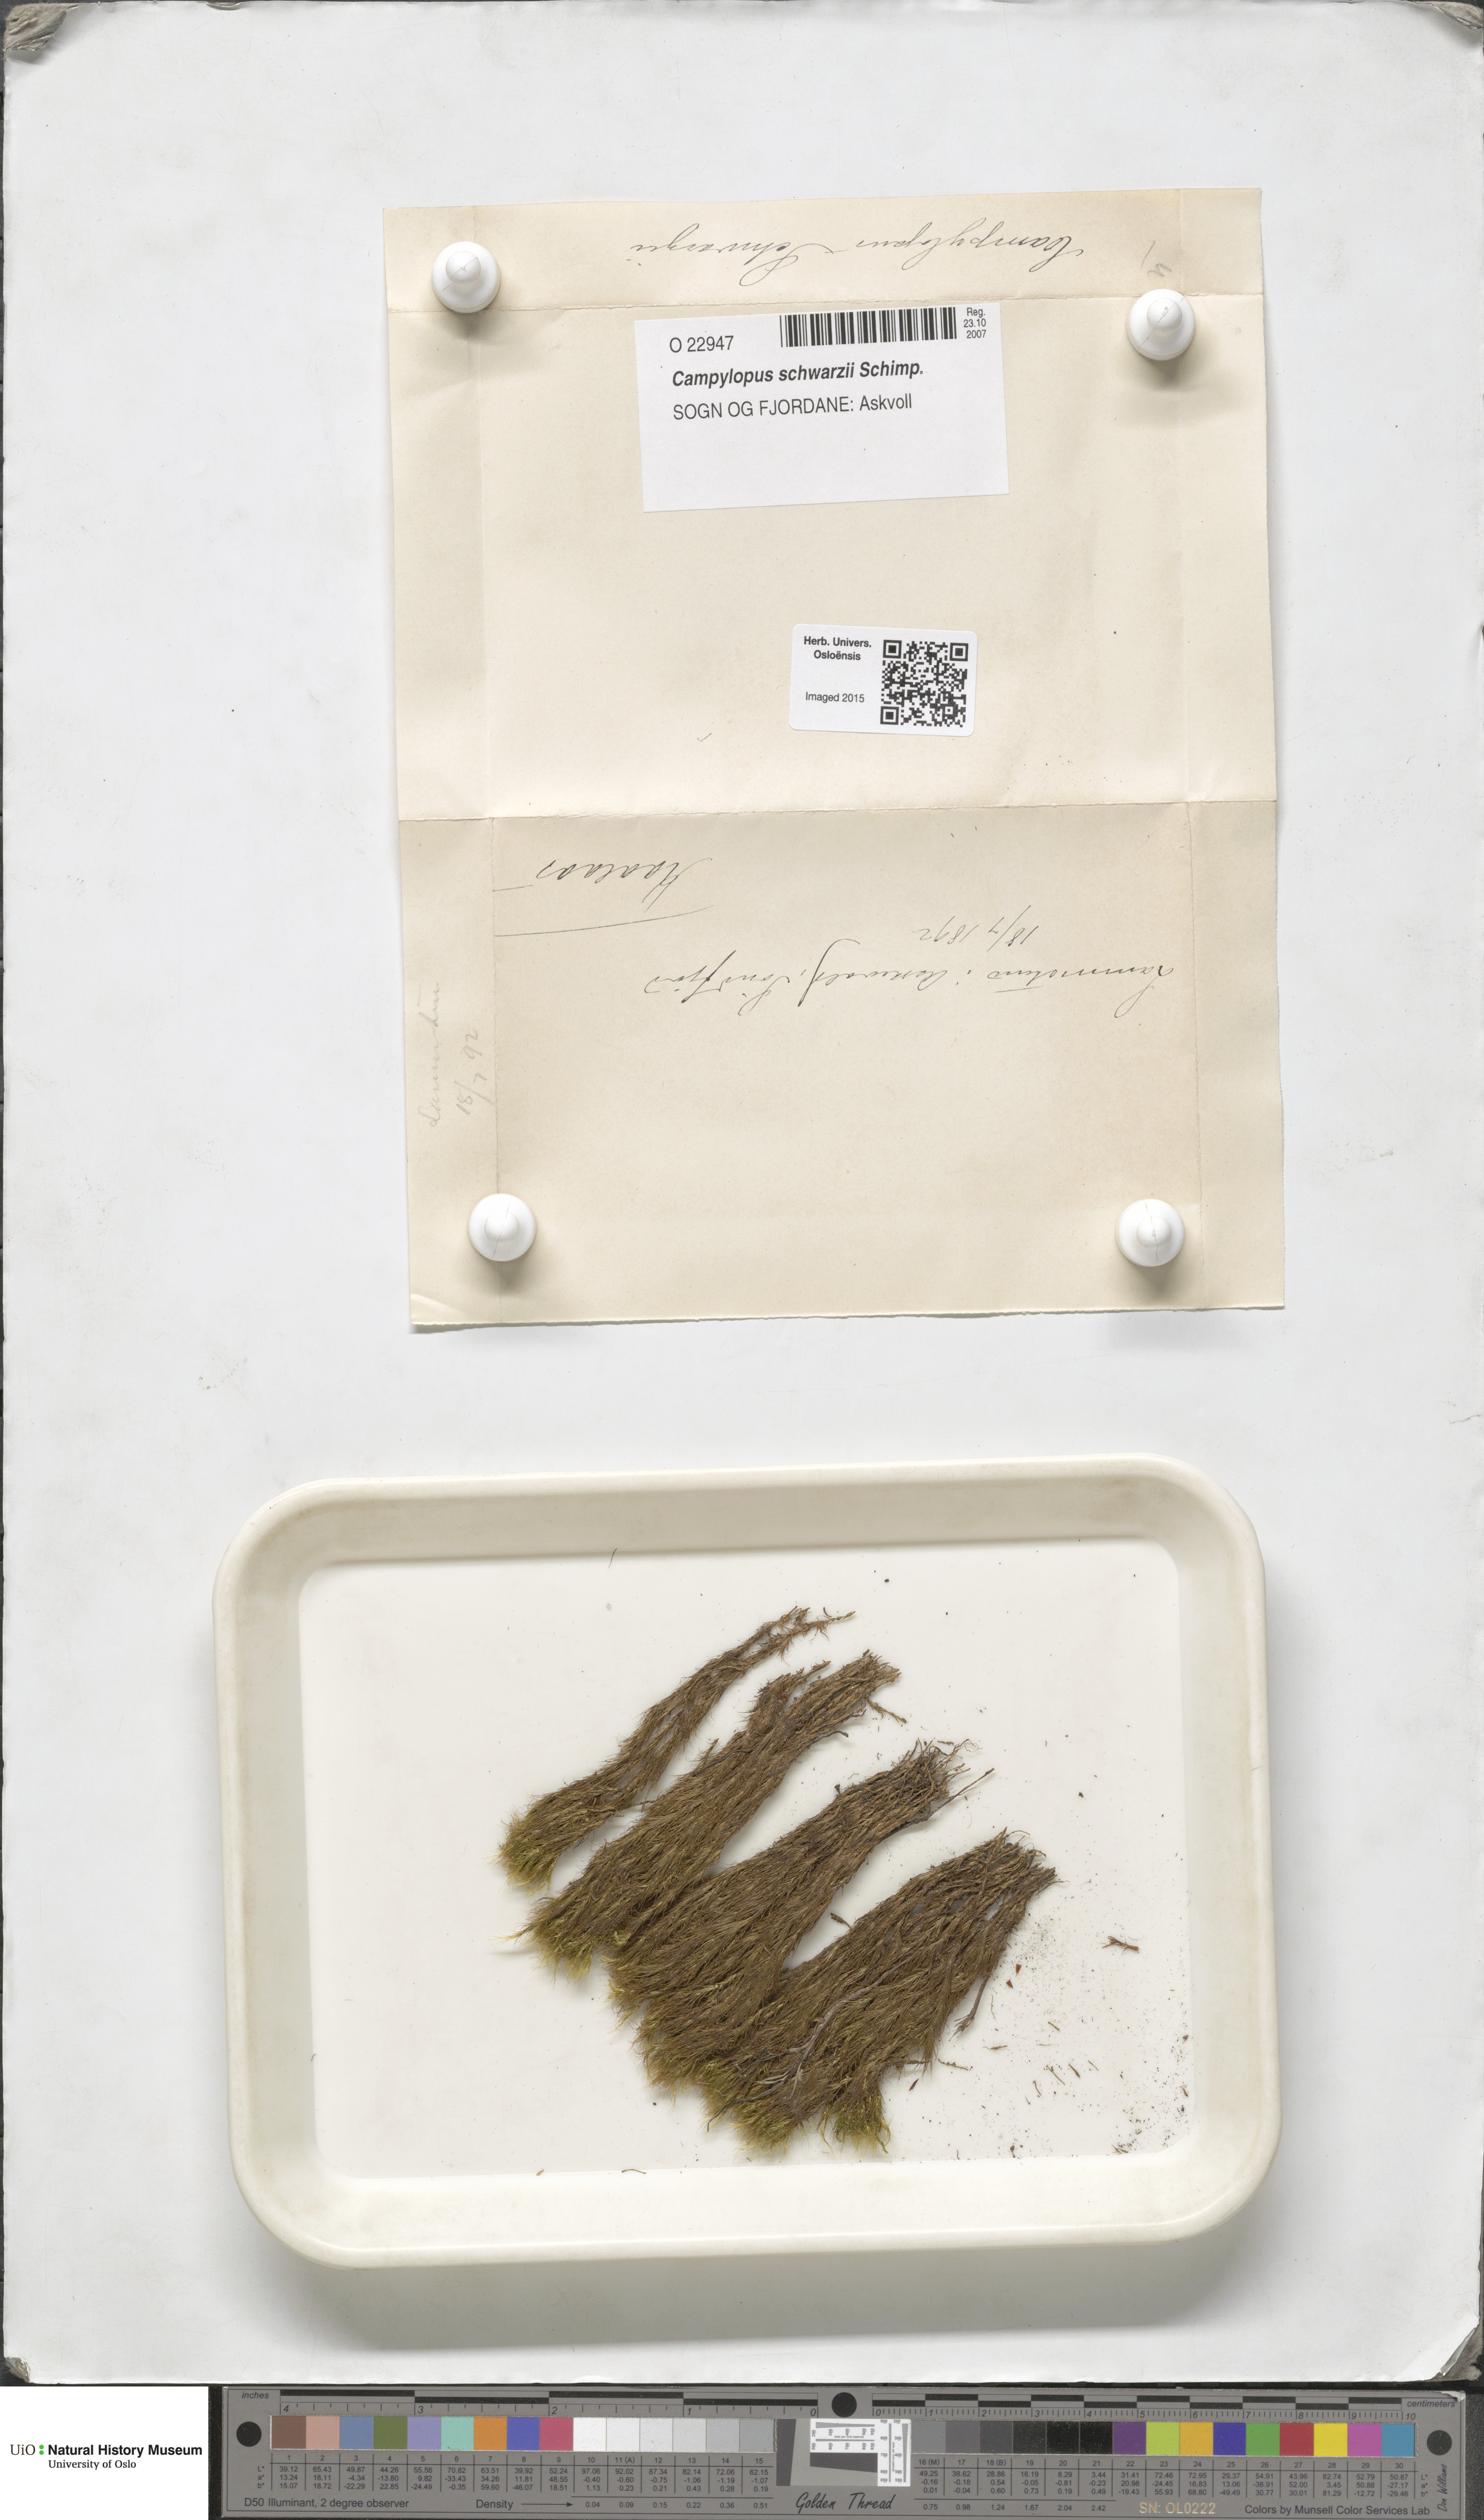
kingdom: Plantae
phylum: Bryophyta
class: Bryopsida
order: Dicranales
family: Leucobryaceae
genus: Campylopus
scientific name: Campylopus gracilis
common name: Schwarz's swan-neck moss
